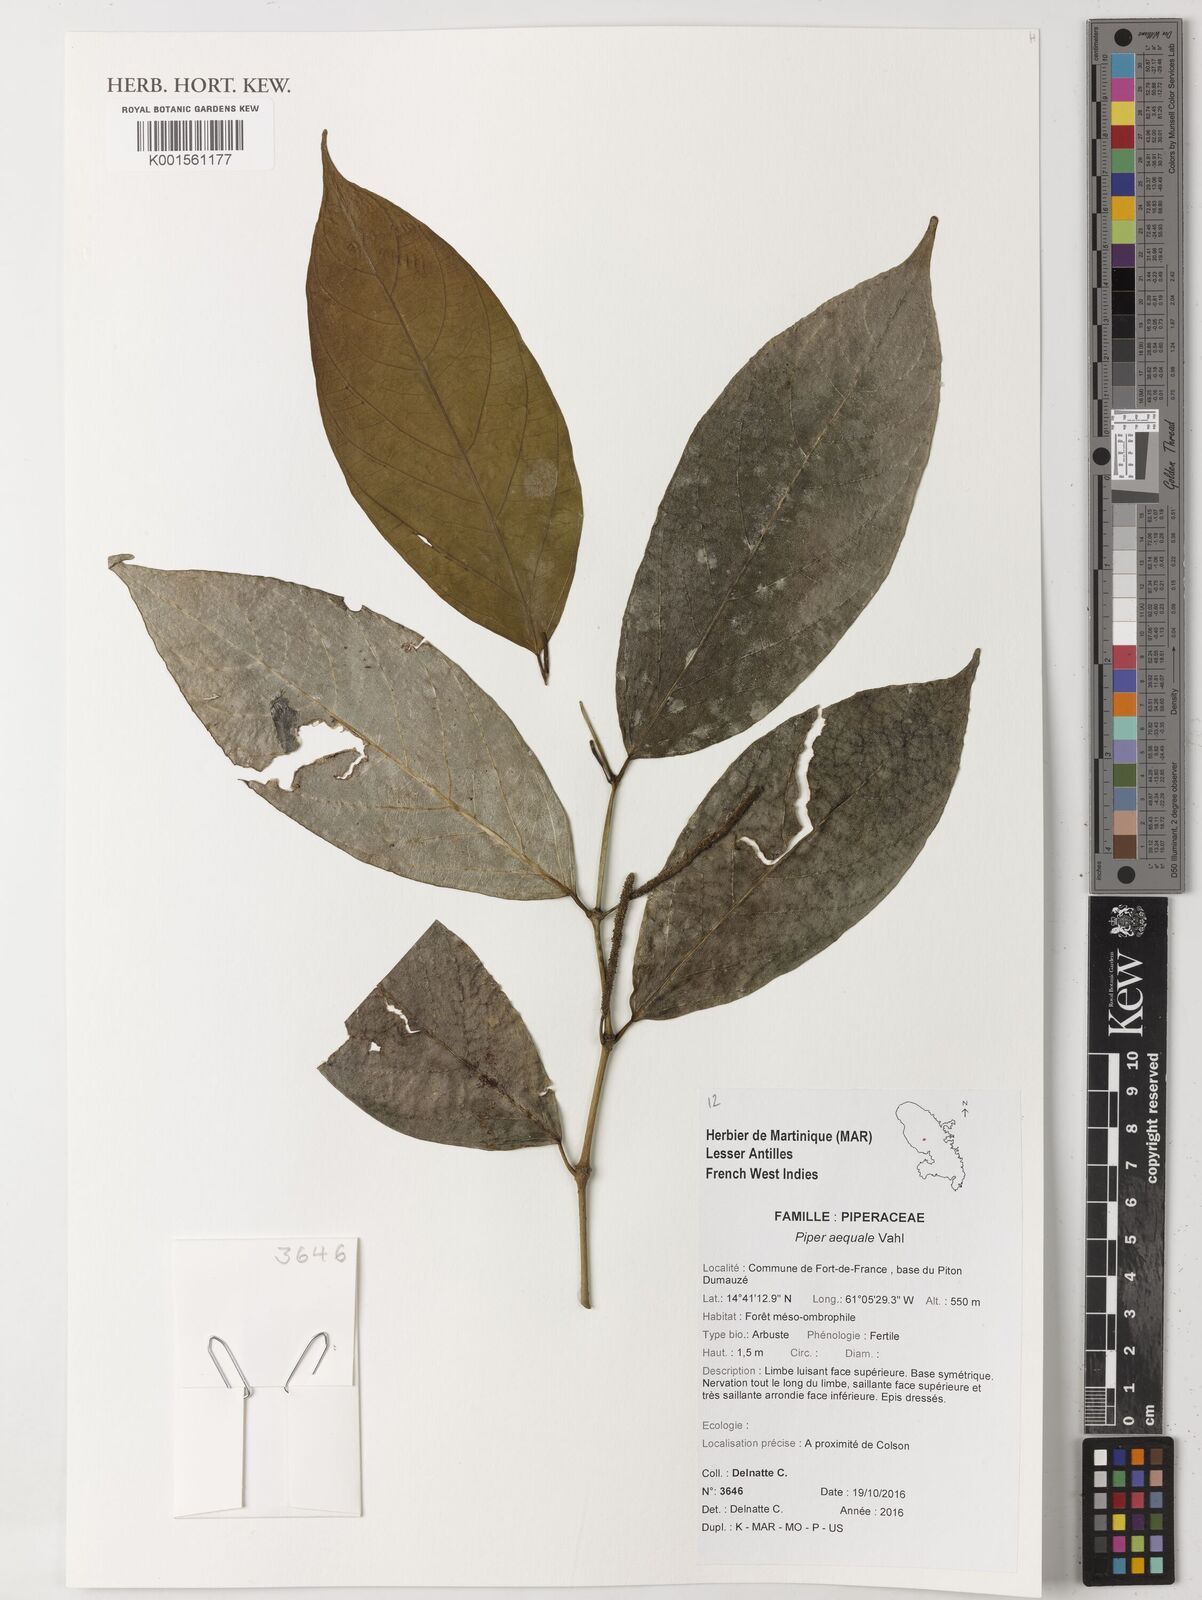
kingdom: Plantae
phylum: Tracheophyta
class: Magnoliopsida
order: Piperales
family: Piperaceae
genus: Piper
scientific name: Piper aequale
